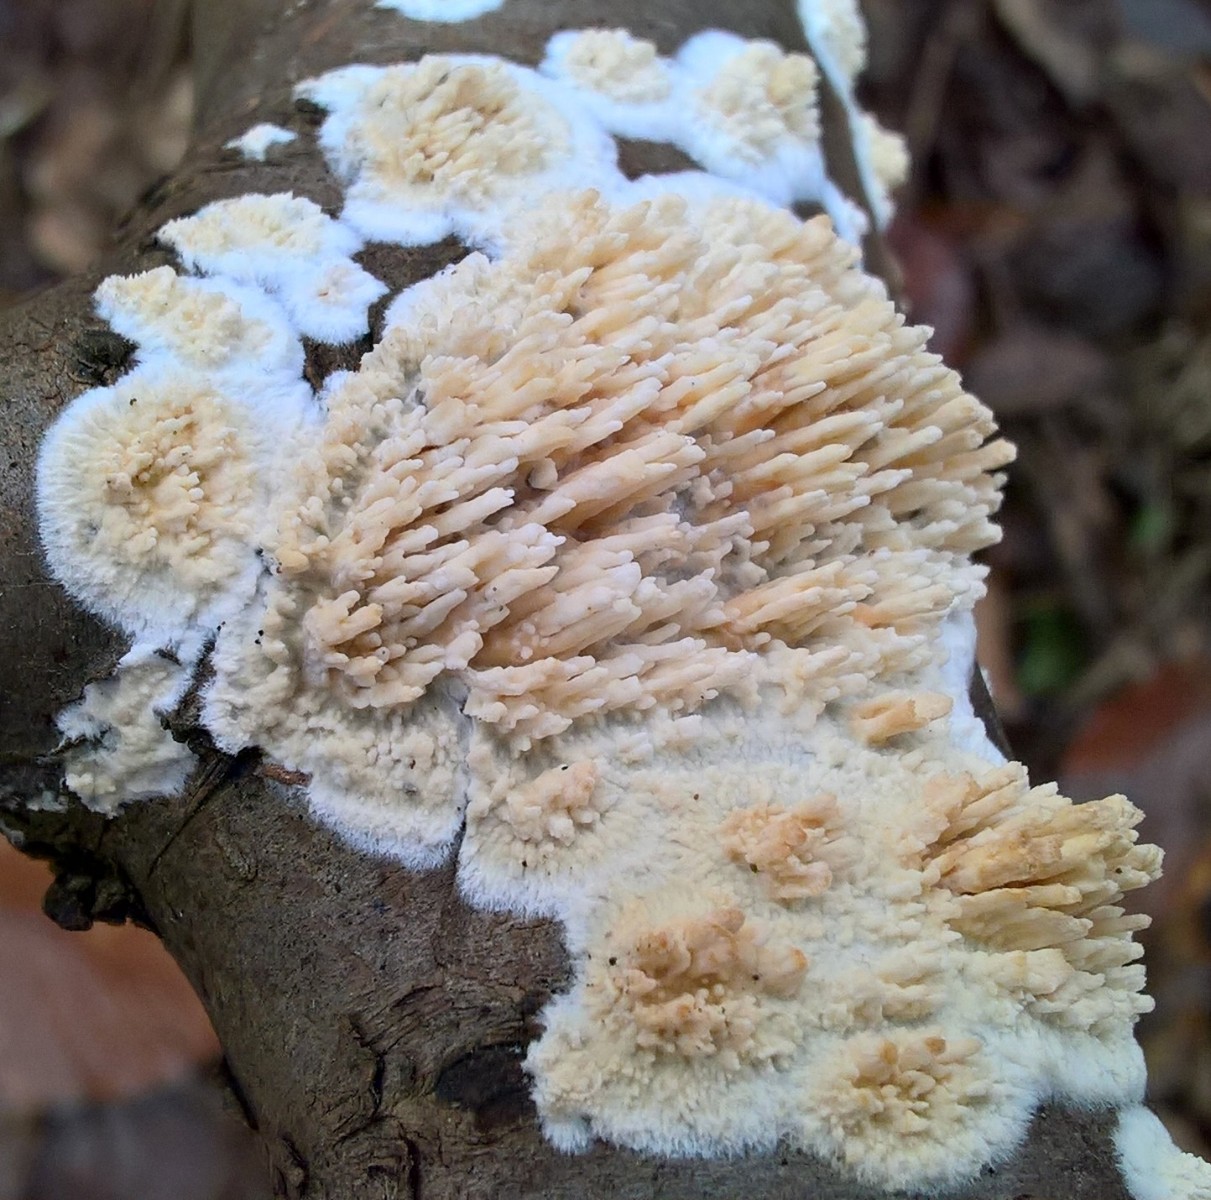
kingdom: Fungi
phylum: Basidiomycota
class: Agaricomycetes
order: Hymenochaetales
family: Schizoporaceae
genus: Xylodon
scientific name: Xylodon radula
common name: grovtandet kalkskind
